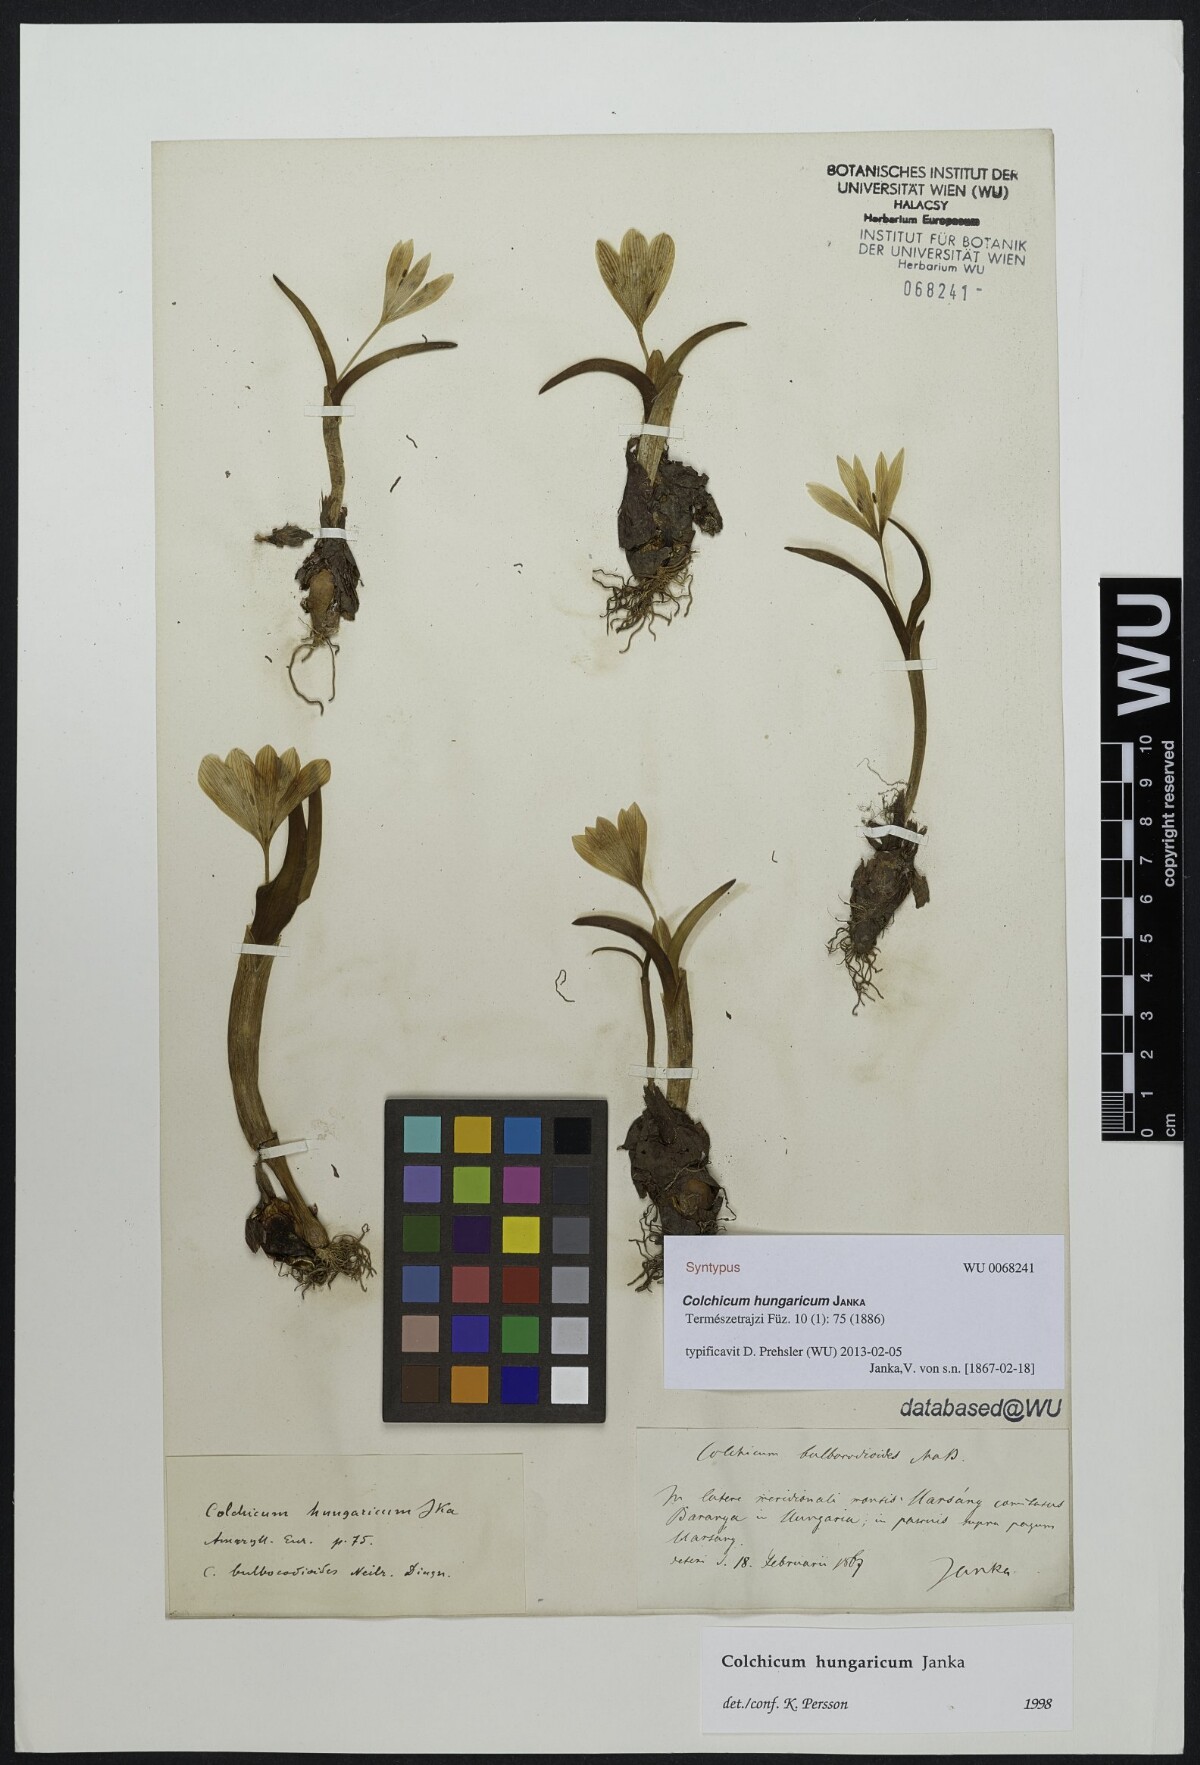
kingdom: Plantae
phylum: Tracheophyta
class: Liliopsida
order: Liliales
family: Colchicaceae
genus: Colchicum
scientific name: Colchicum hungaricum
